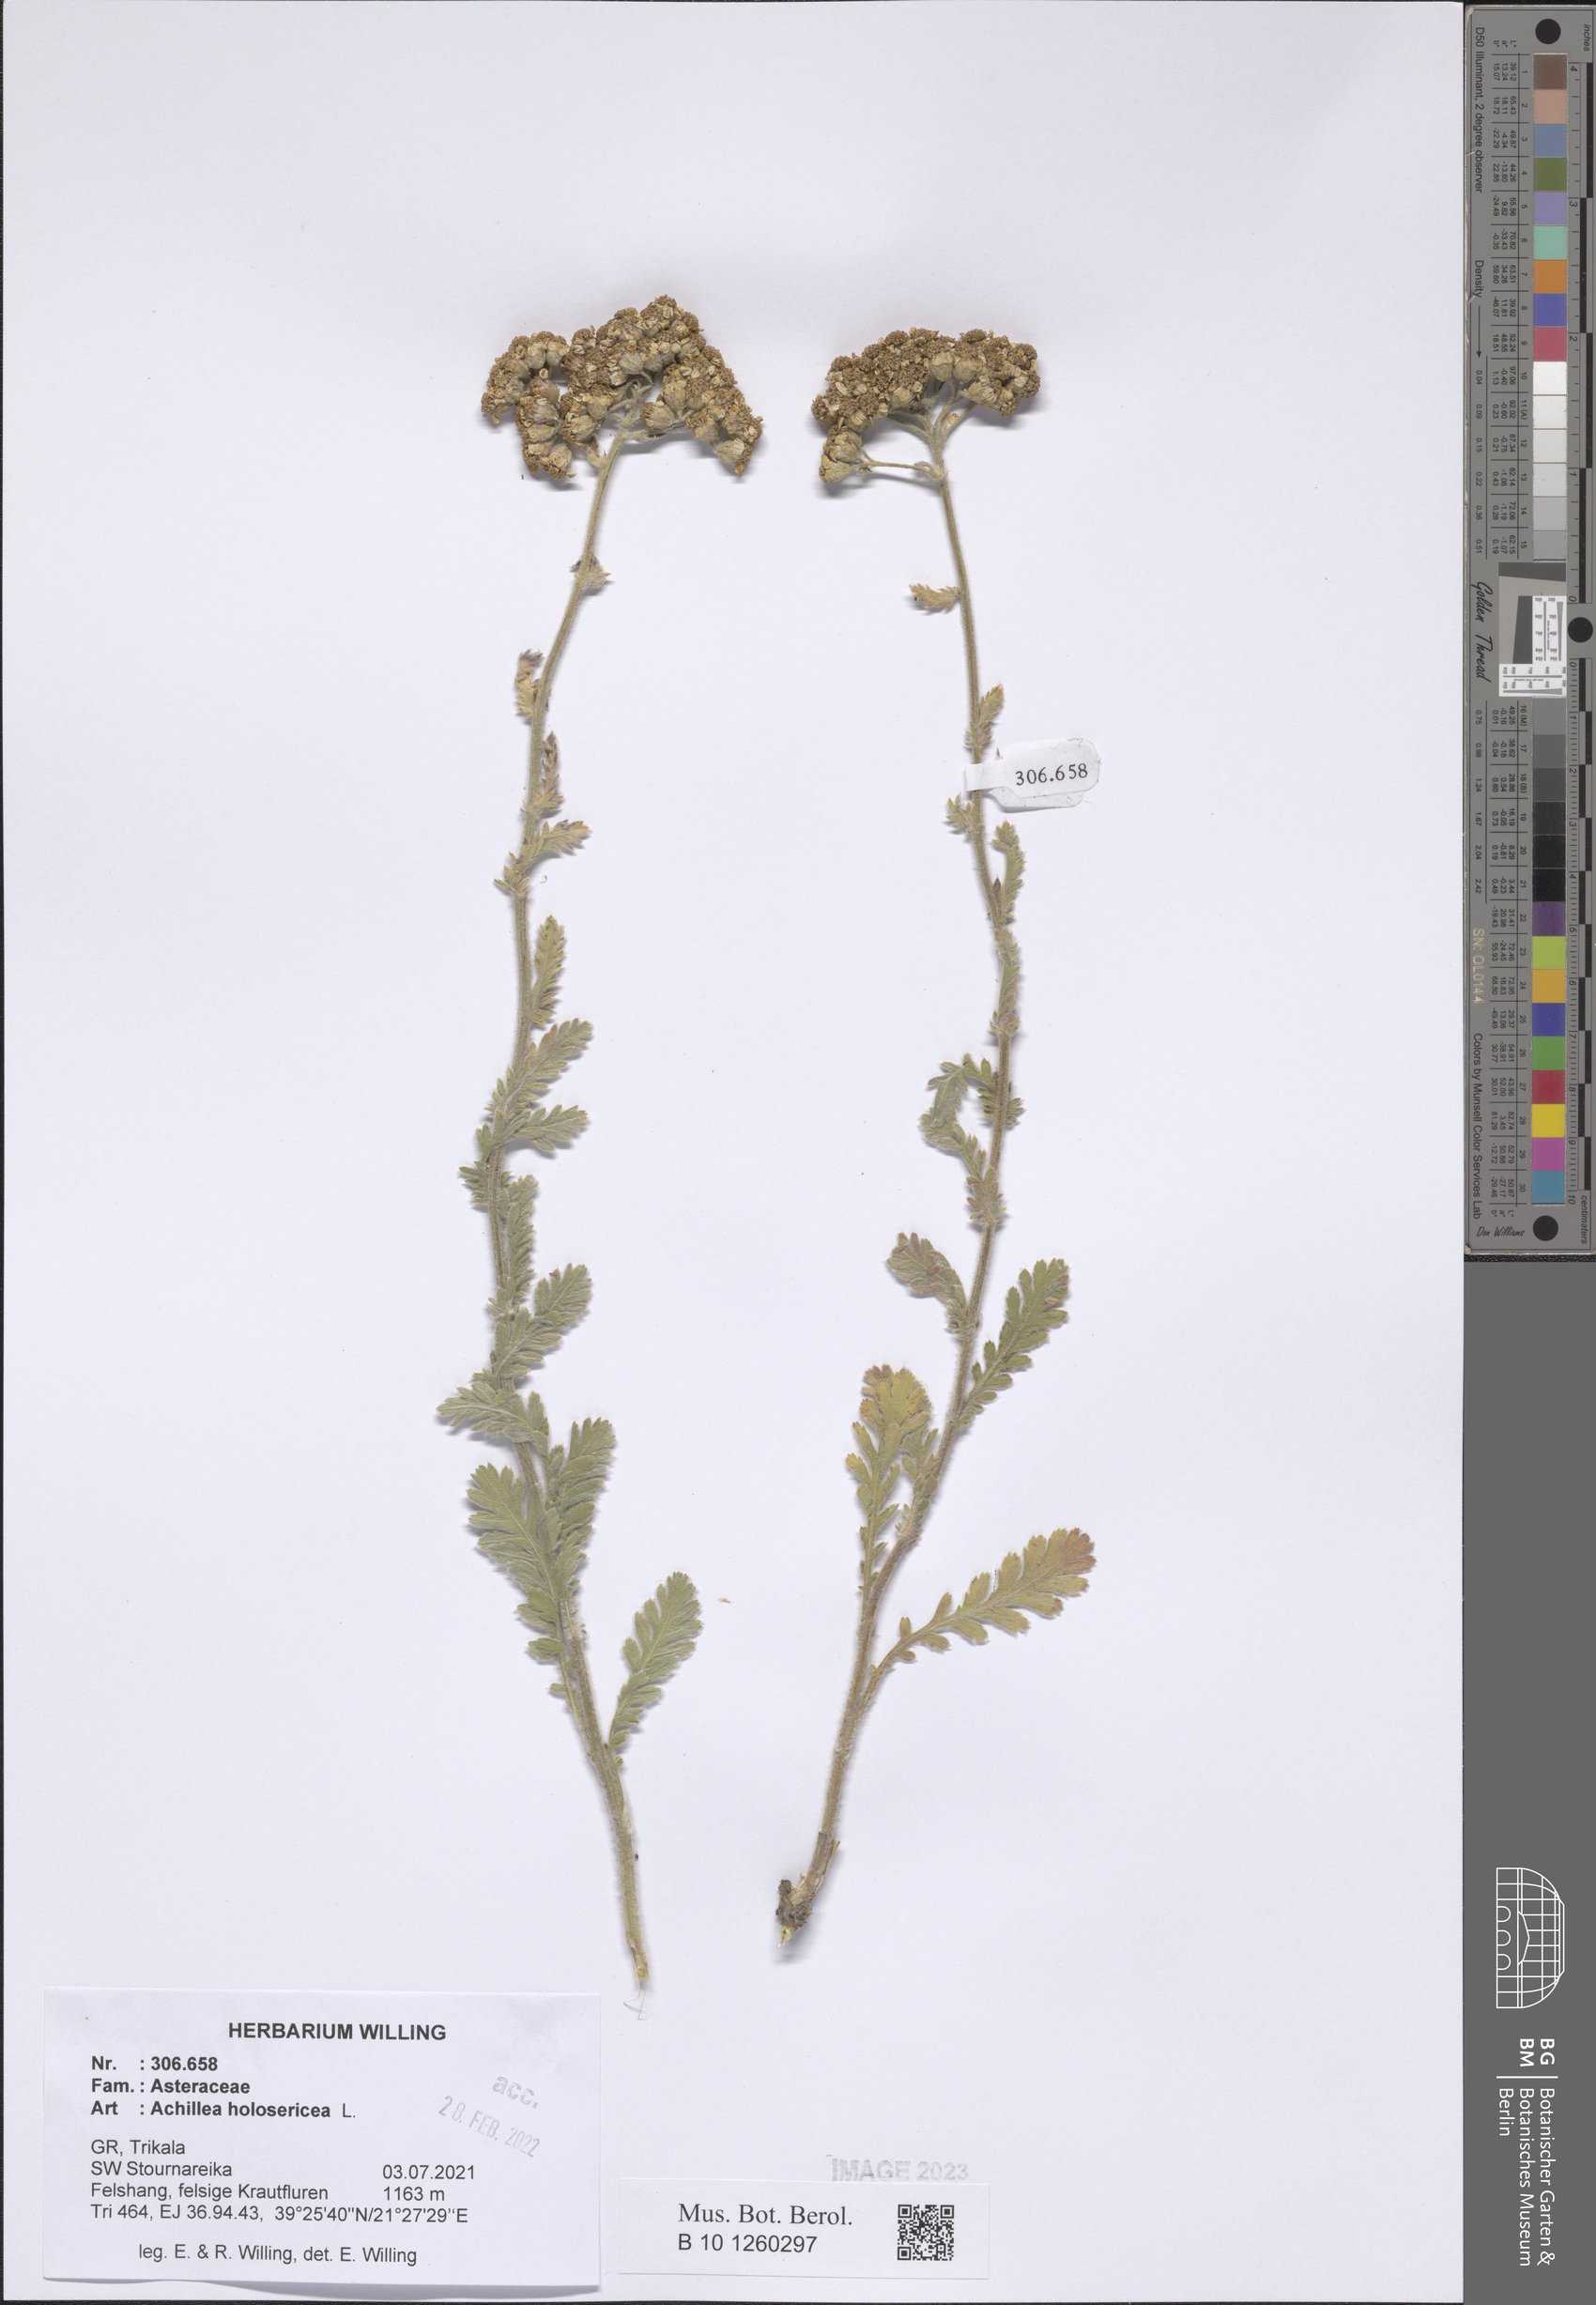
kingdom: Plantae
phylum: Tracheophyta
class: Magnoliopsida
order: Asterales
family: Asteraceae
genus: Achillea
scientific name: Achillea holosericea
